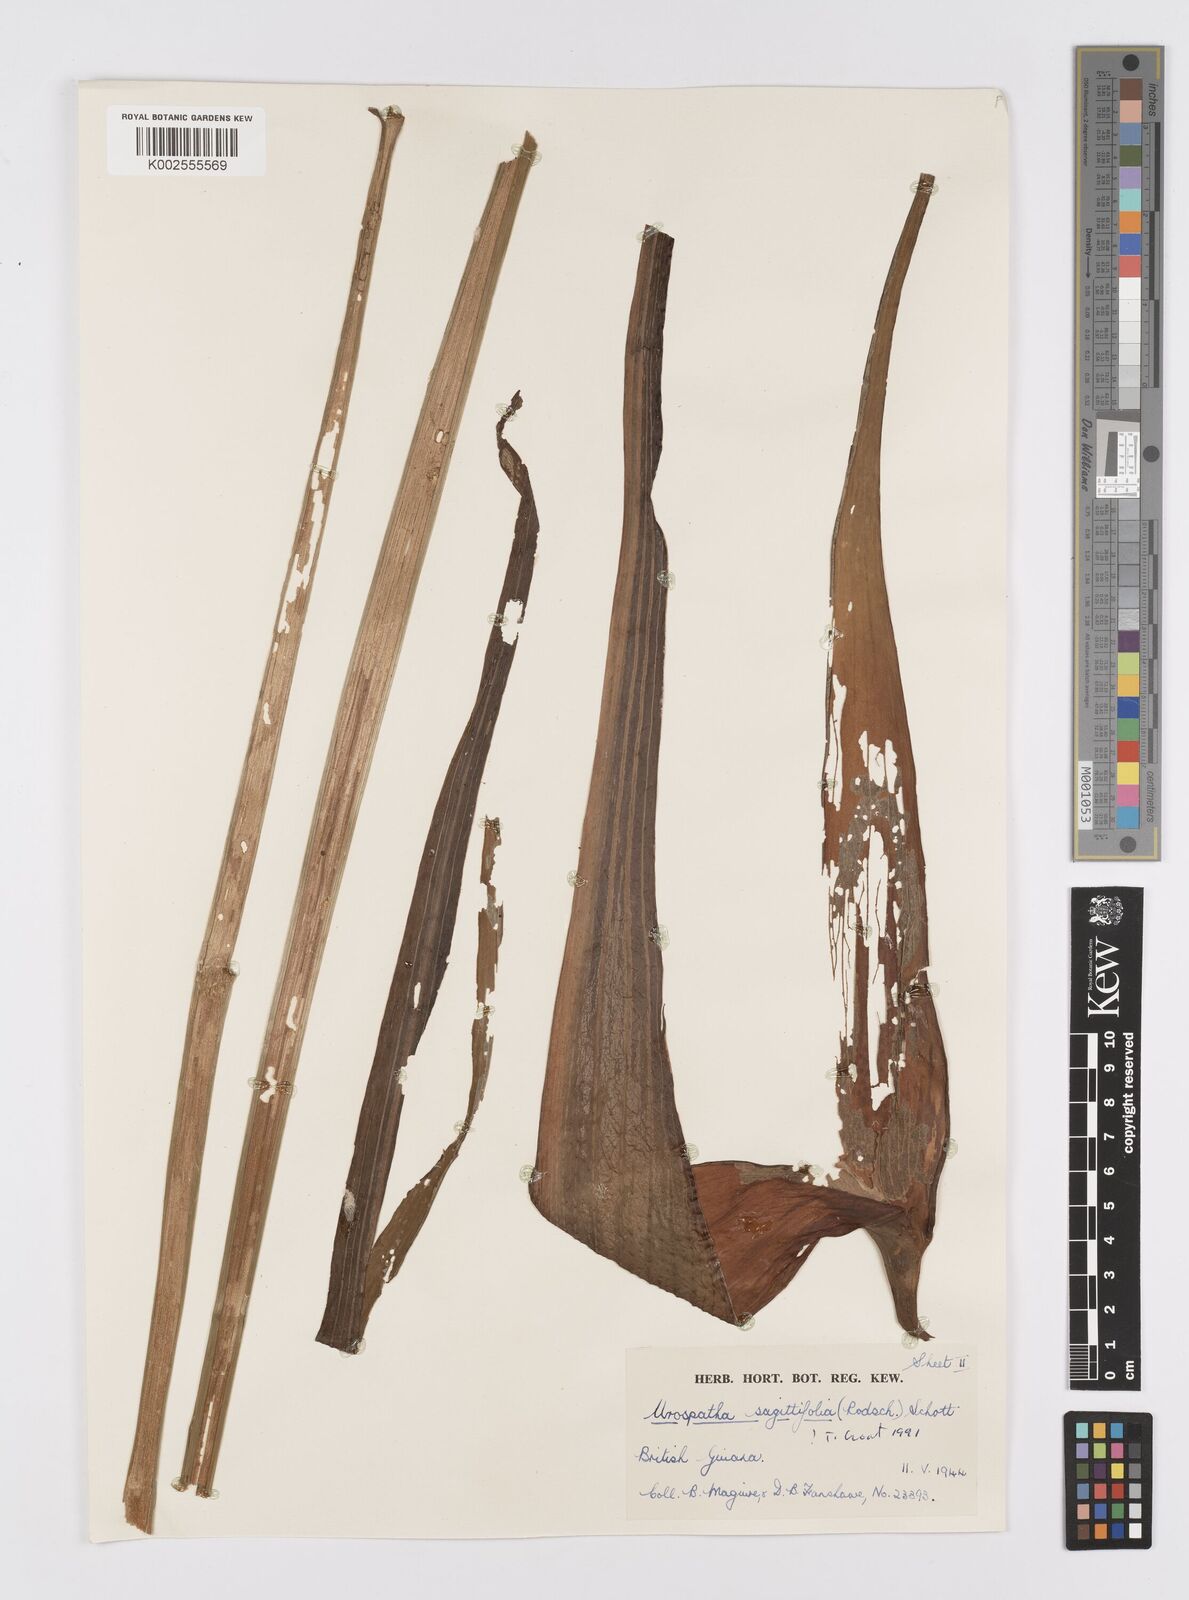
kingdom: Plantae
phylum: Tracheophyta
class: Liliopsida
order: Alismatales
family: Araceae
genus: Urospatha
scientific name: Urospatha sagittifolia
